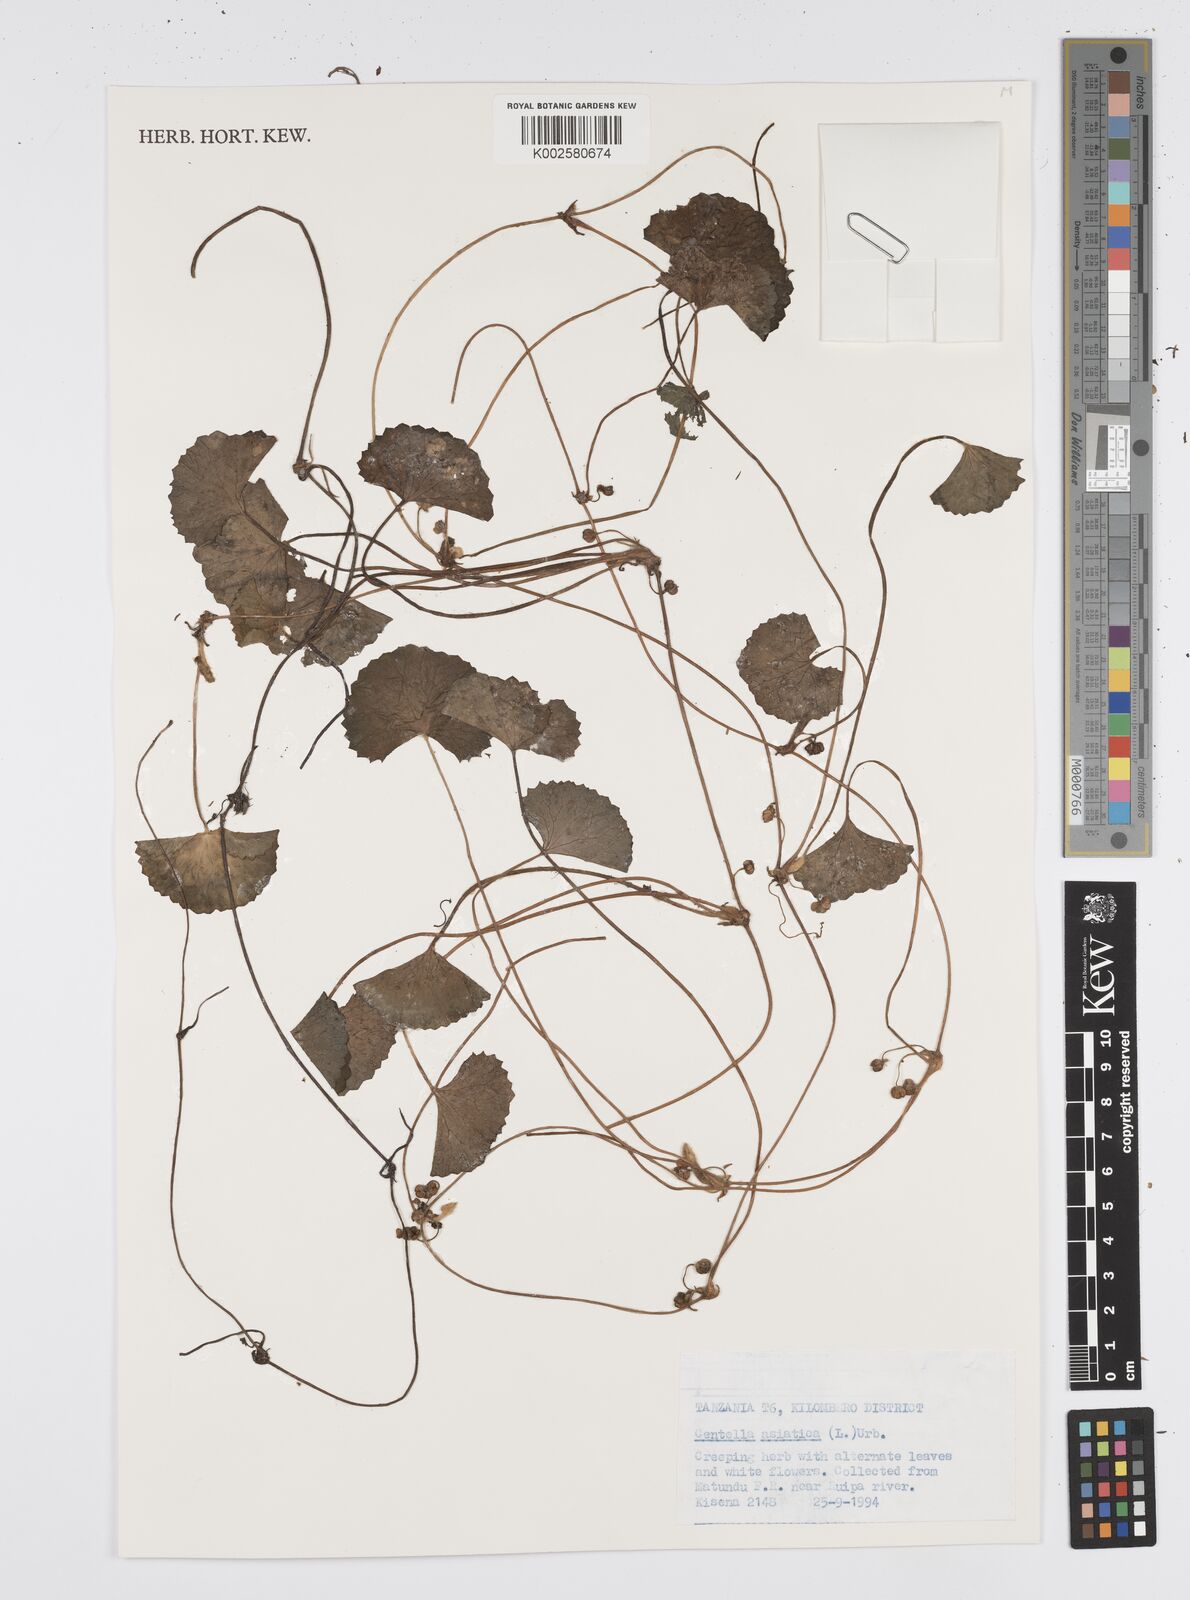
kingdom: Plantae
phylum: Tracheophyta
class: Magnoliopsida
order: Apiales
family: Apiaceae
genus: Centella
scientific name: Centella asiatica
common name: Spadeleaf
